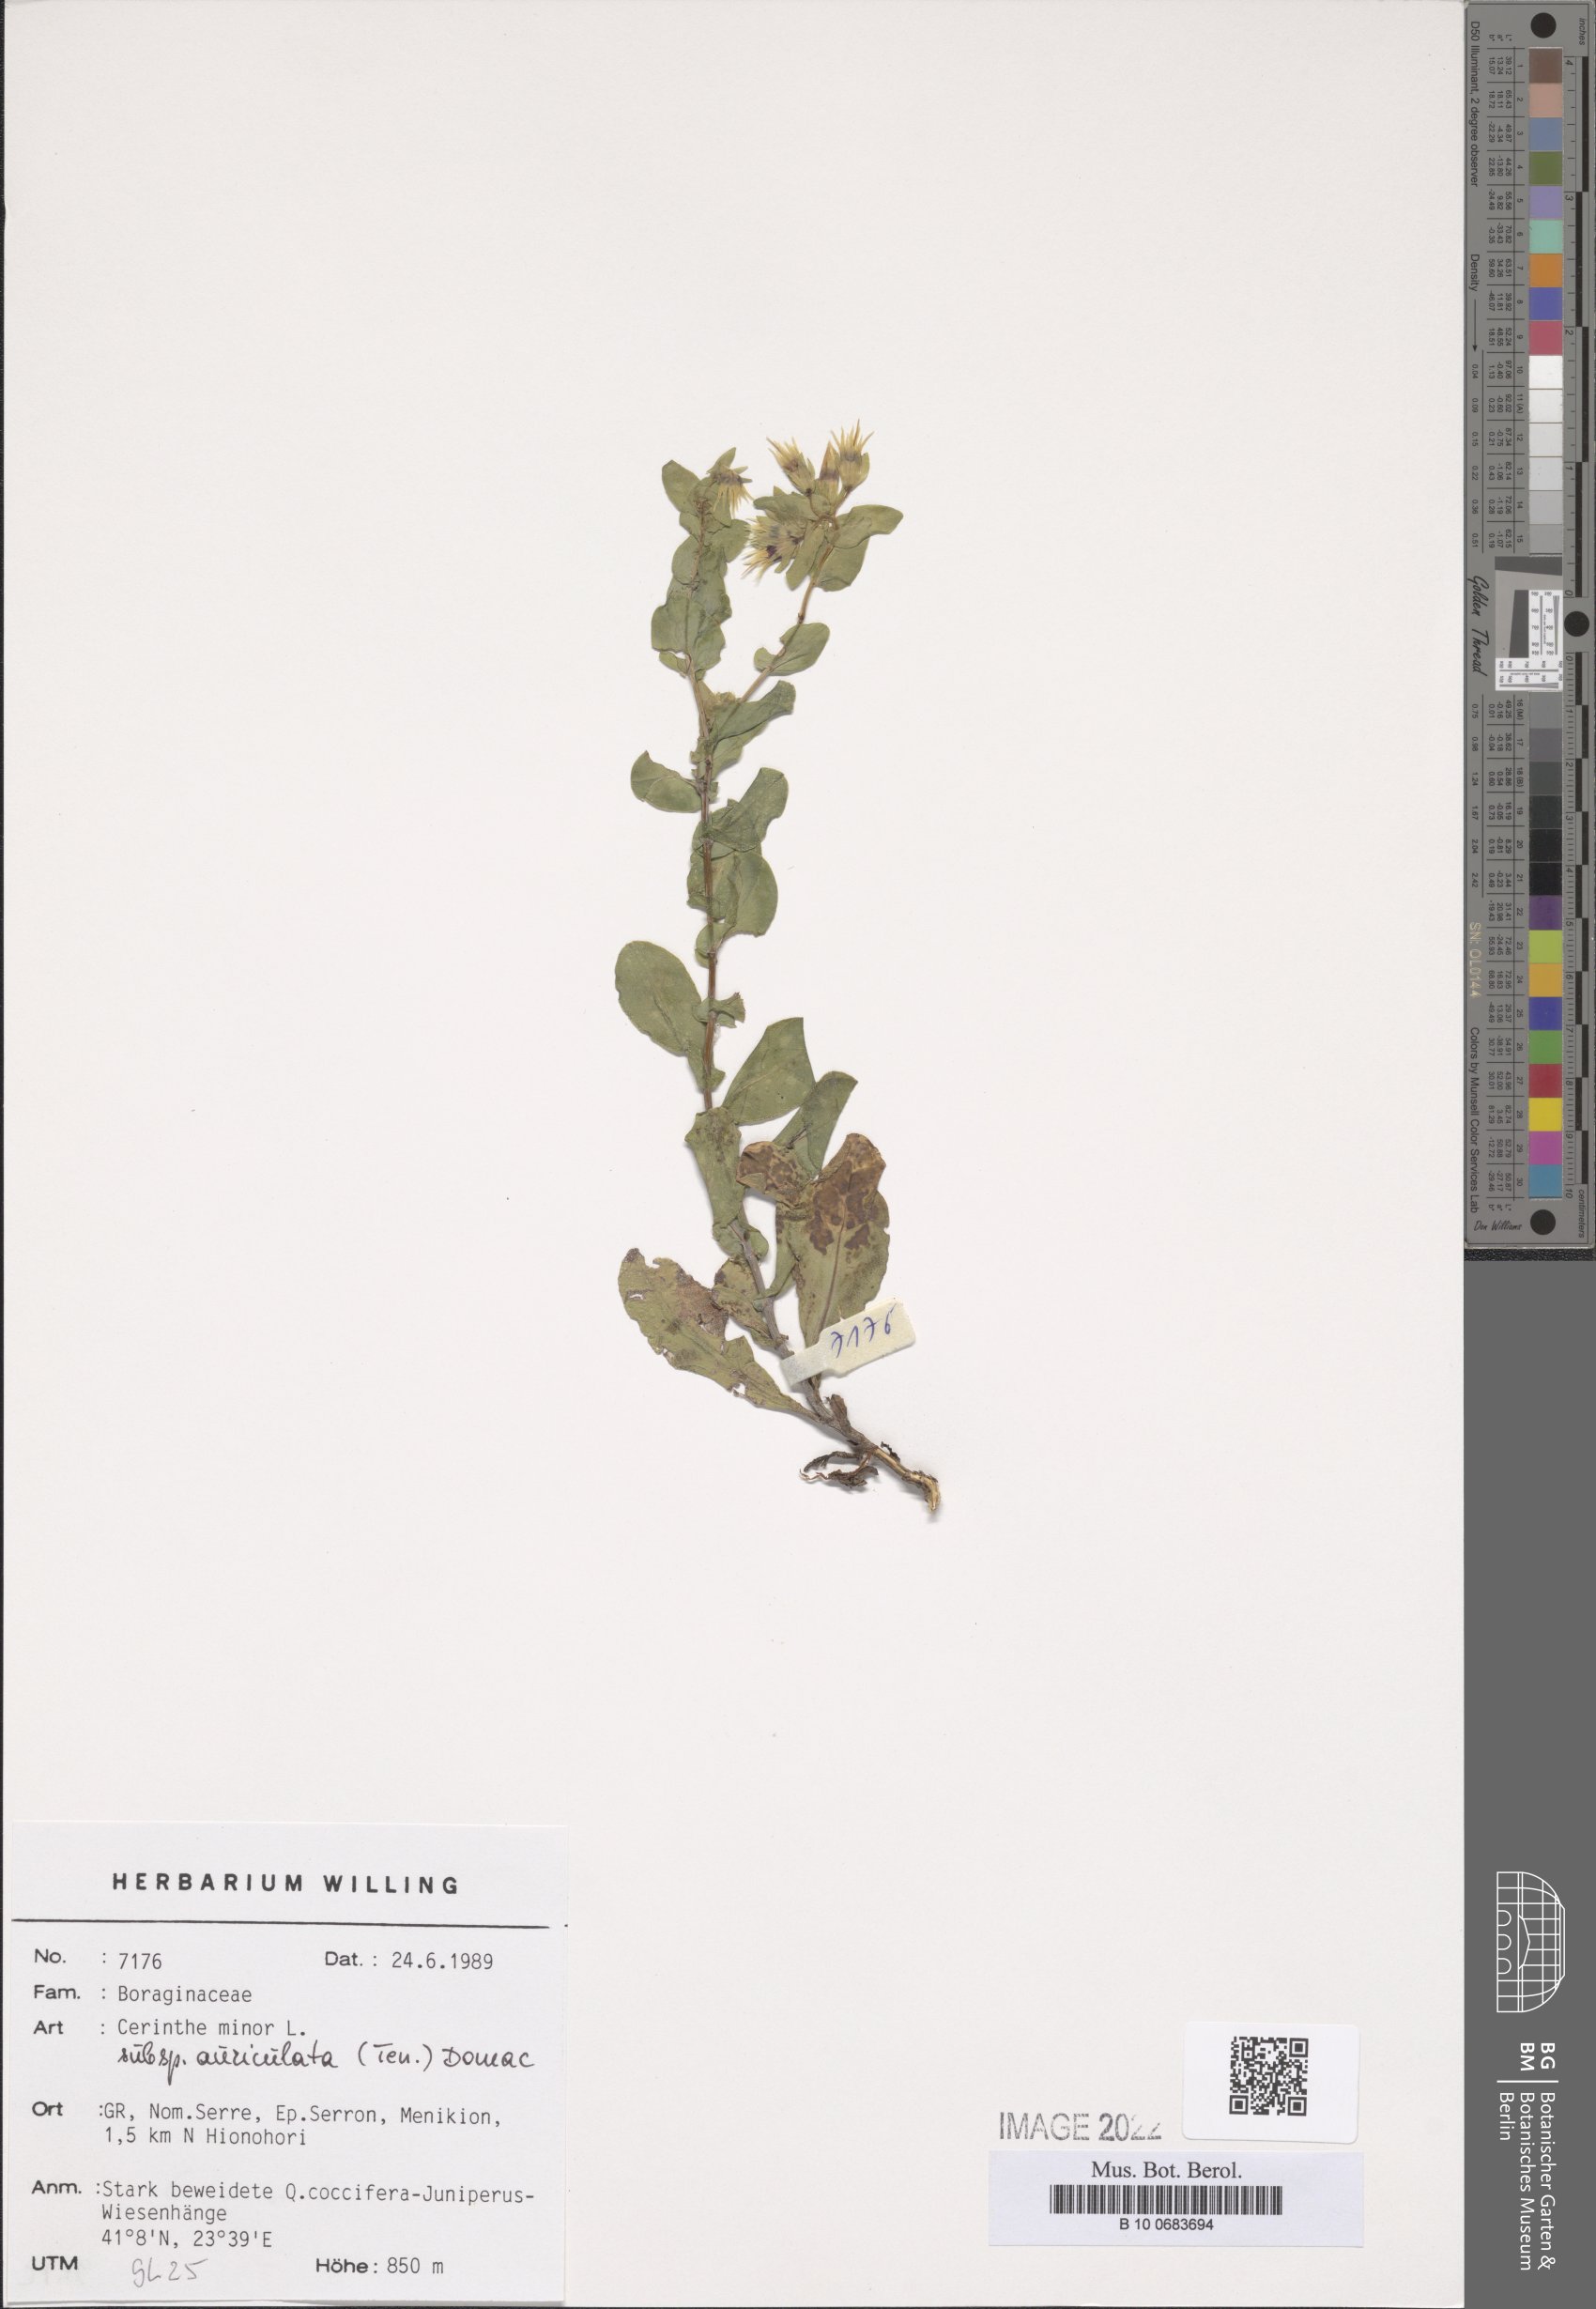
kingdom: Plantae
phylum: Tracheophyta
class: Magnoliopsida
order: Boraginales
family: Boraginaceae
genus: Cerinthe
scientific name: Cerinthe minor
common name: Lesser honeywort
